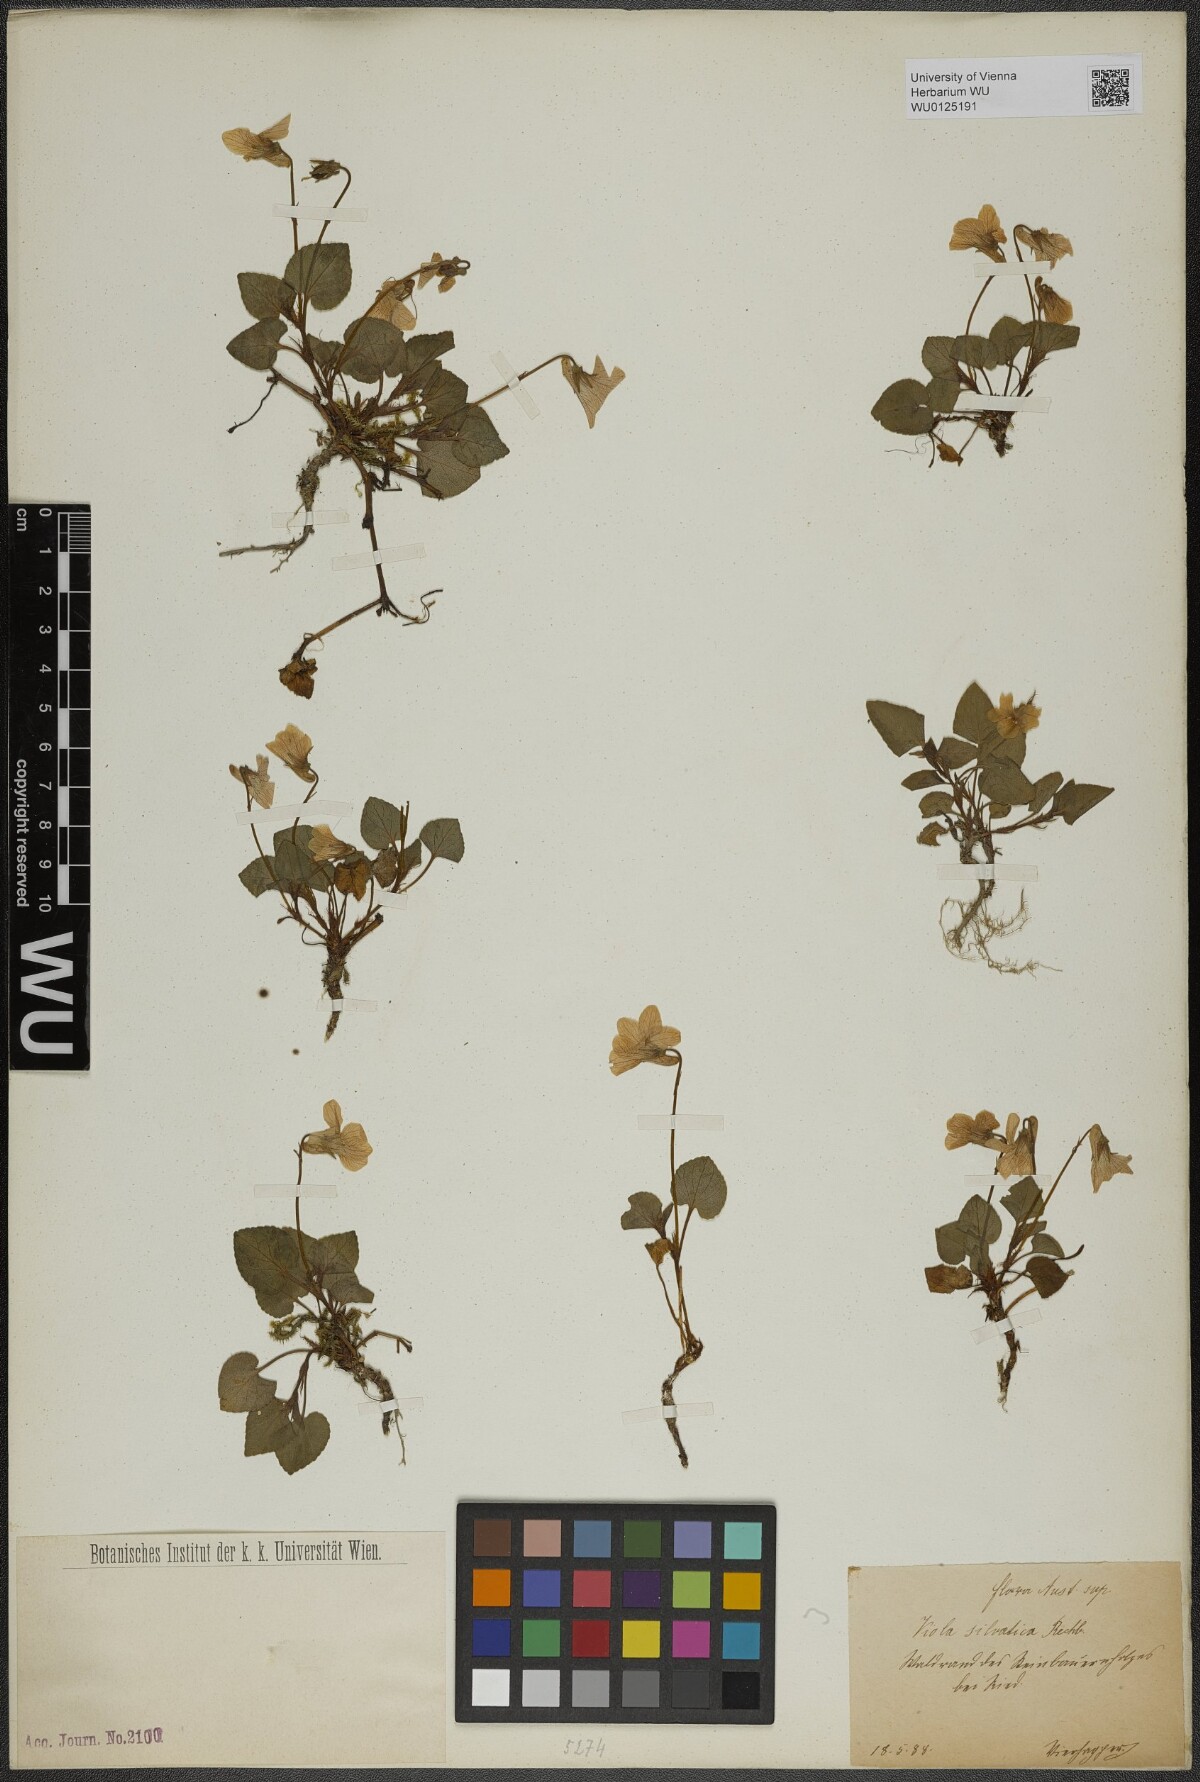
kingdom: Plantae
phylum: Tracheophyta
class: Magnoliopsida
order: Malpighiales
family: Violaceae
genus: Viola
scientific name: Viola reichenbachiana
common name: Early dog-violet
